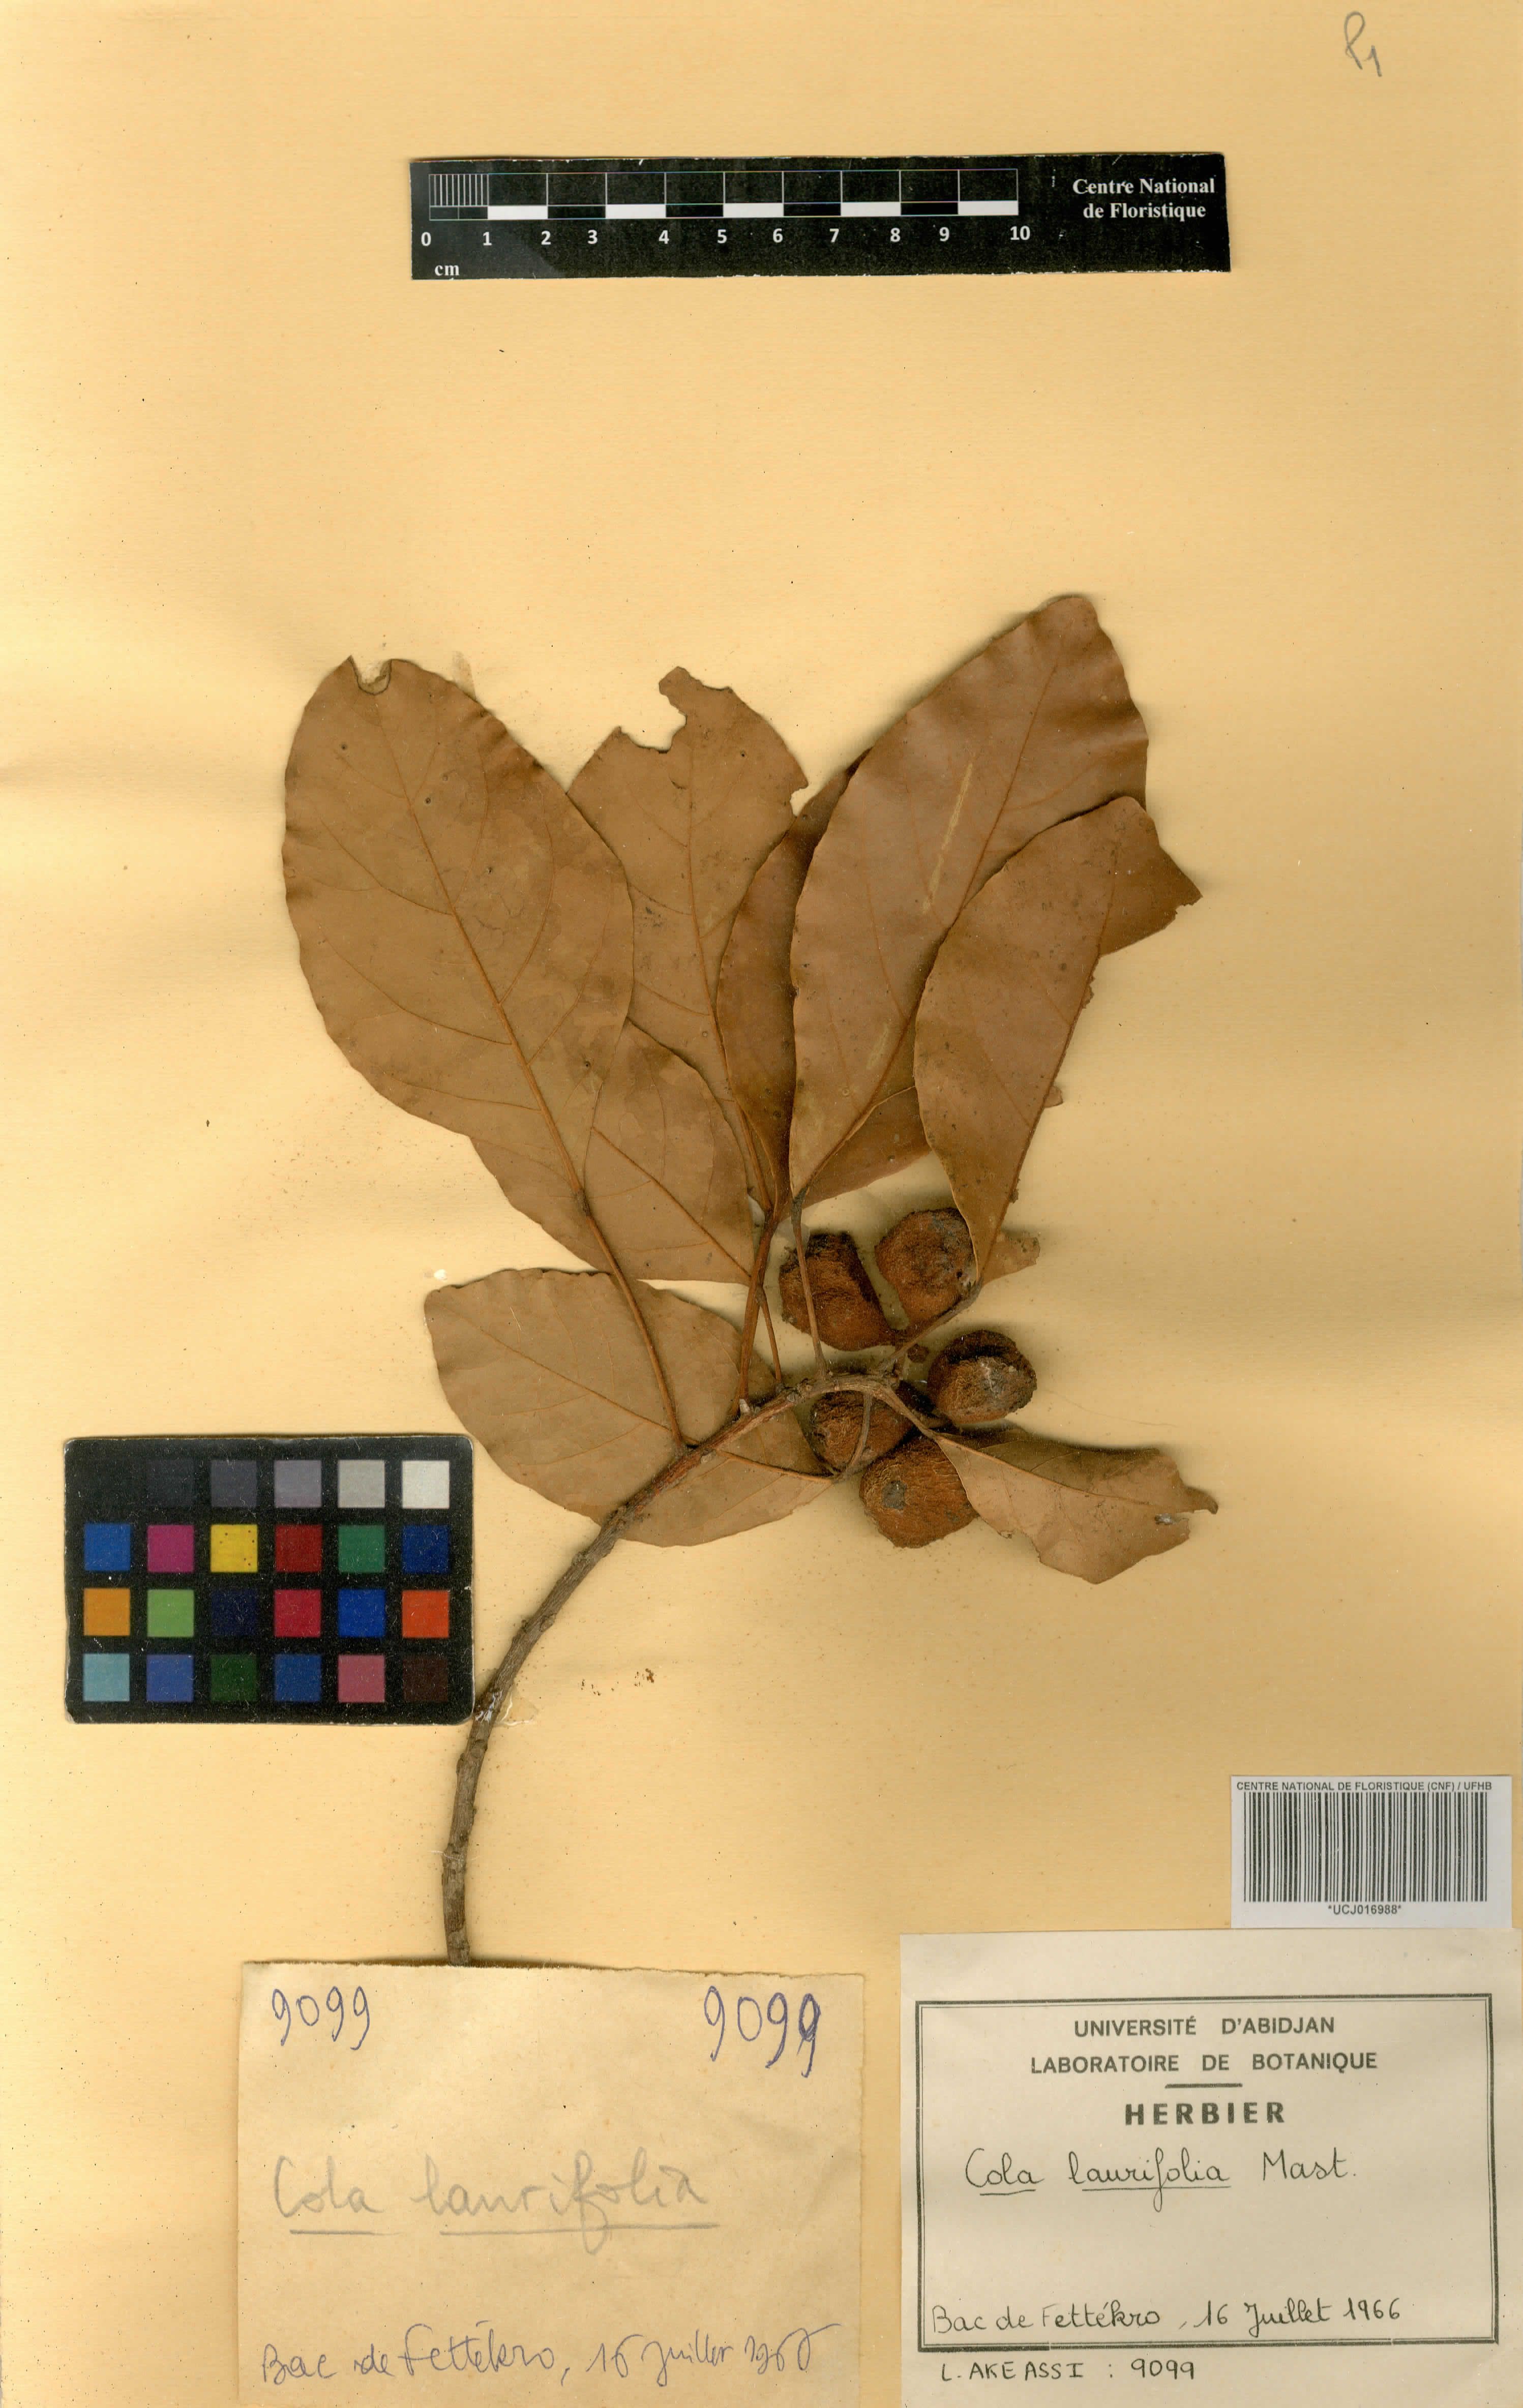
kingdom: Plantae
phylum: Tracheophyta
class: Magnoliopsida
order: Malvales
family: Malvaceae
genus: Cola
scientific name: Cola laurifolia
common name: Laurel-leaved kola
